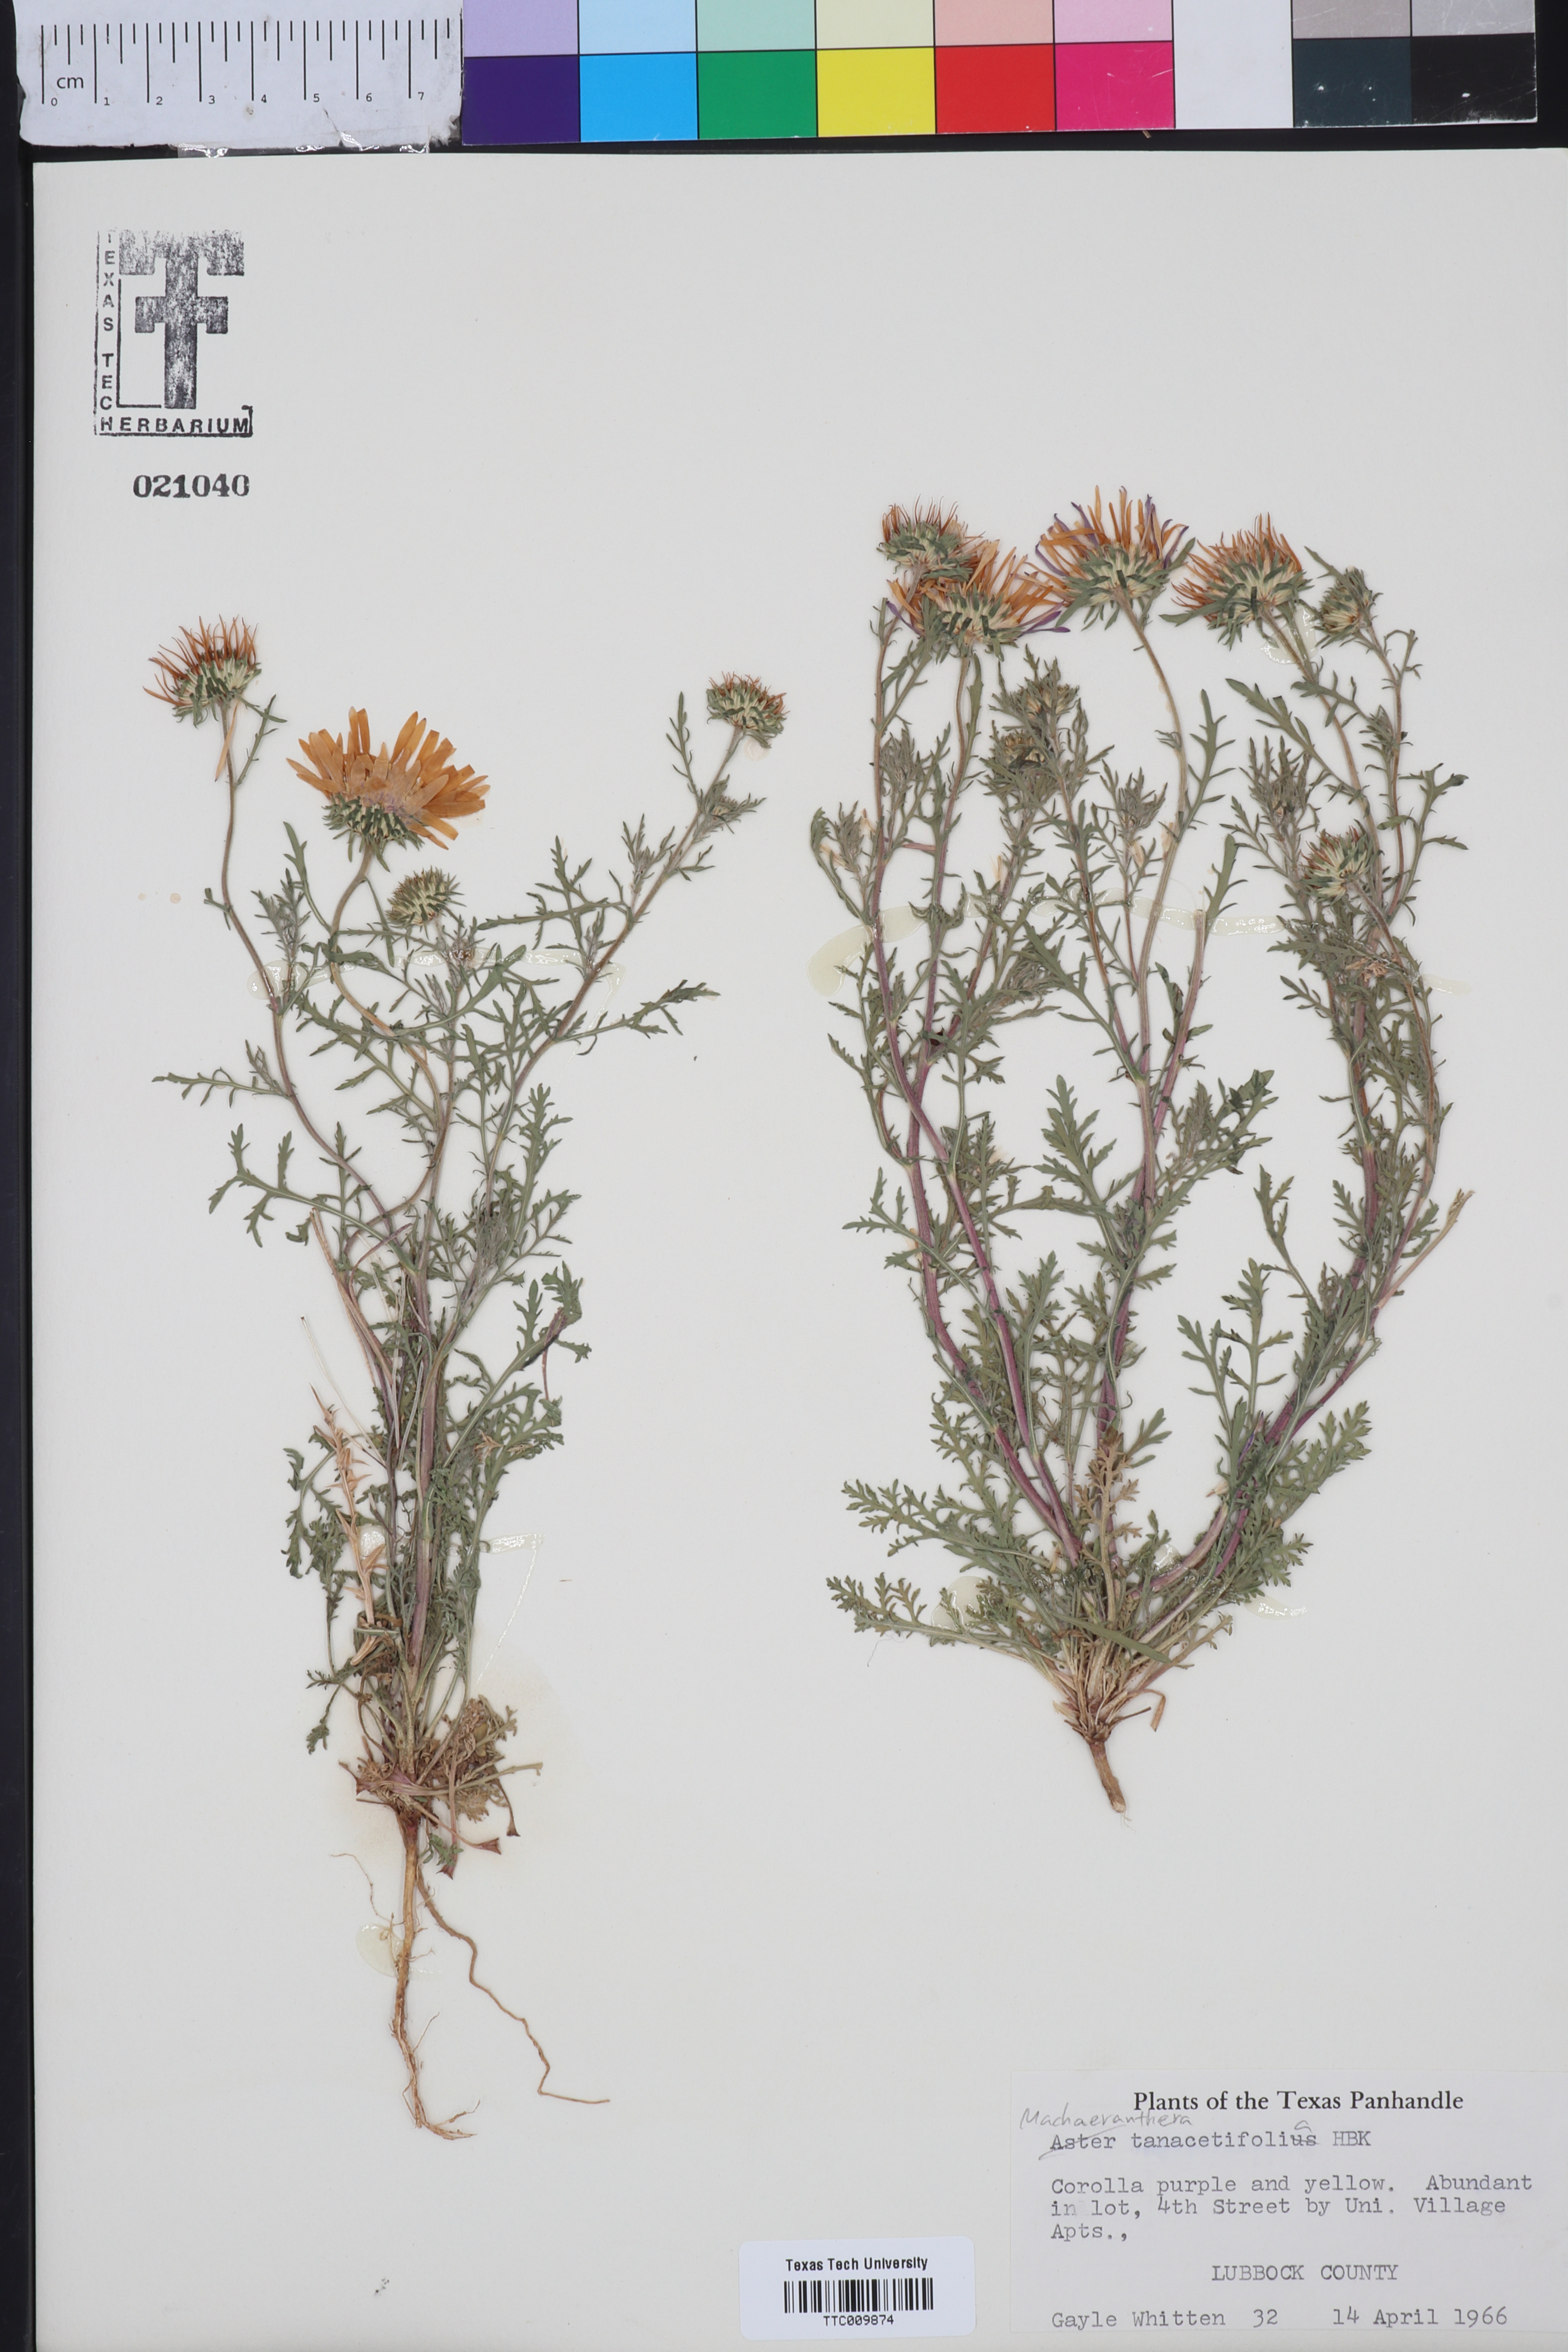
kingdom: Plantae
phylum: Tracheophyta
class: Magnoliopsida
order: Asterales
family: Asteraceae
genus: Machaeranthera
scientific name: Machaeranthera tanacetifolia
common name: Tansy-aster
